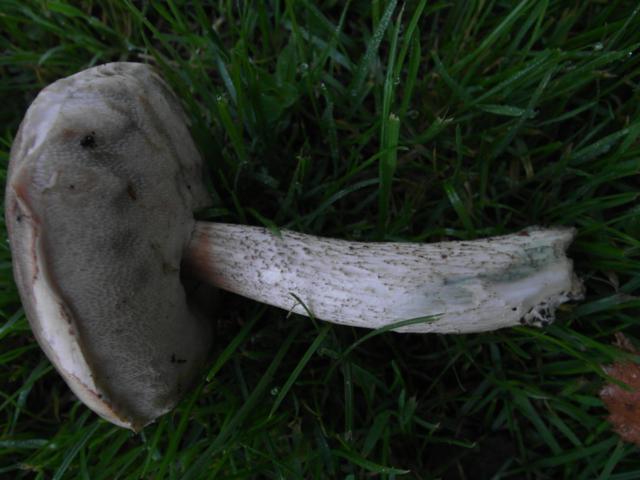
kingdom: Fungi
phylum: Basidiomycota
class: Agaricomycetes
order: Boletales
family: Boletaceae
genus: Leccinum
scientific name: Leccinum cyaneobasileucum
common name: almindelig skælrørhat
